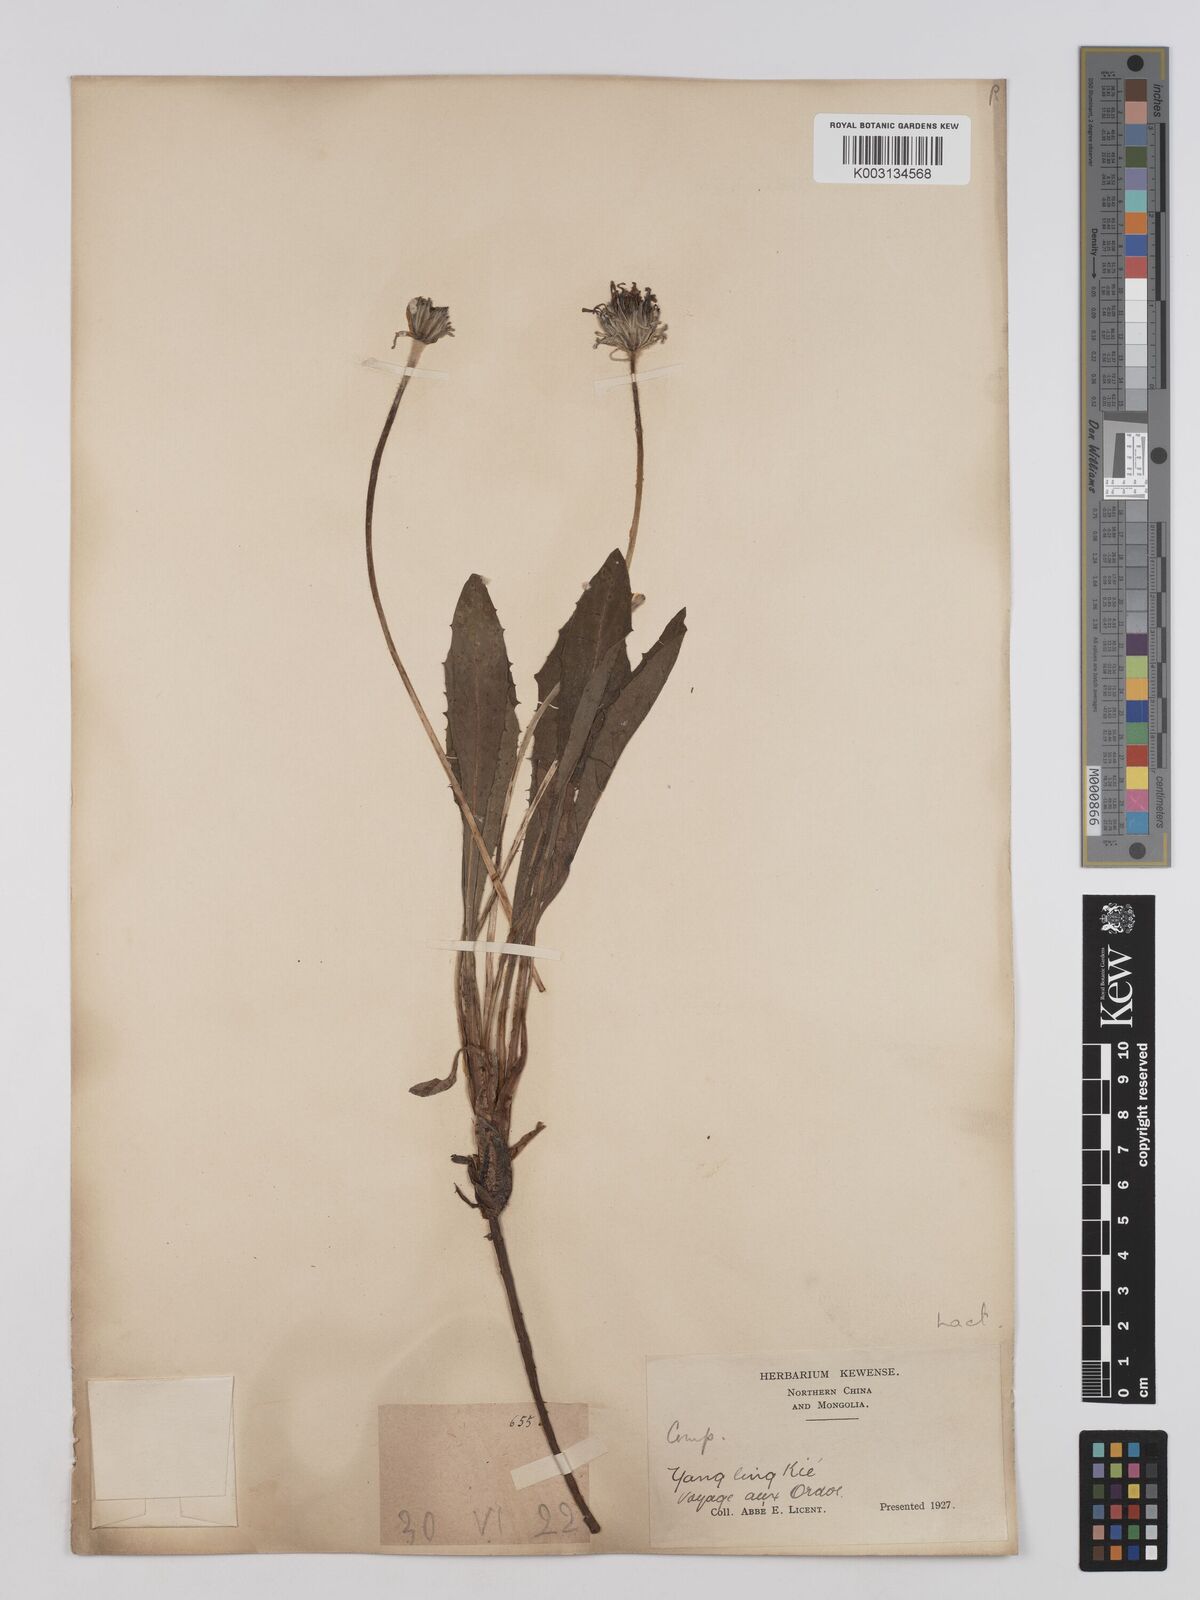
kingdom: Plantae
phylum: Tracheophyta
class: Magnoliopsida
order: Asterales
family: Asteraceae
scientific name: Asteraceae
